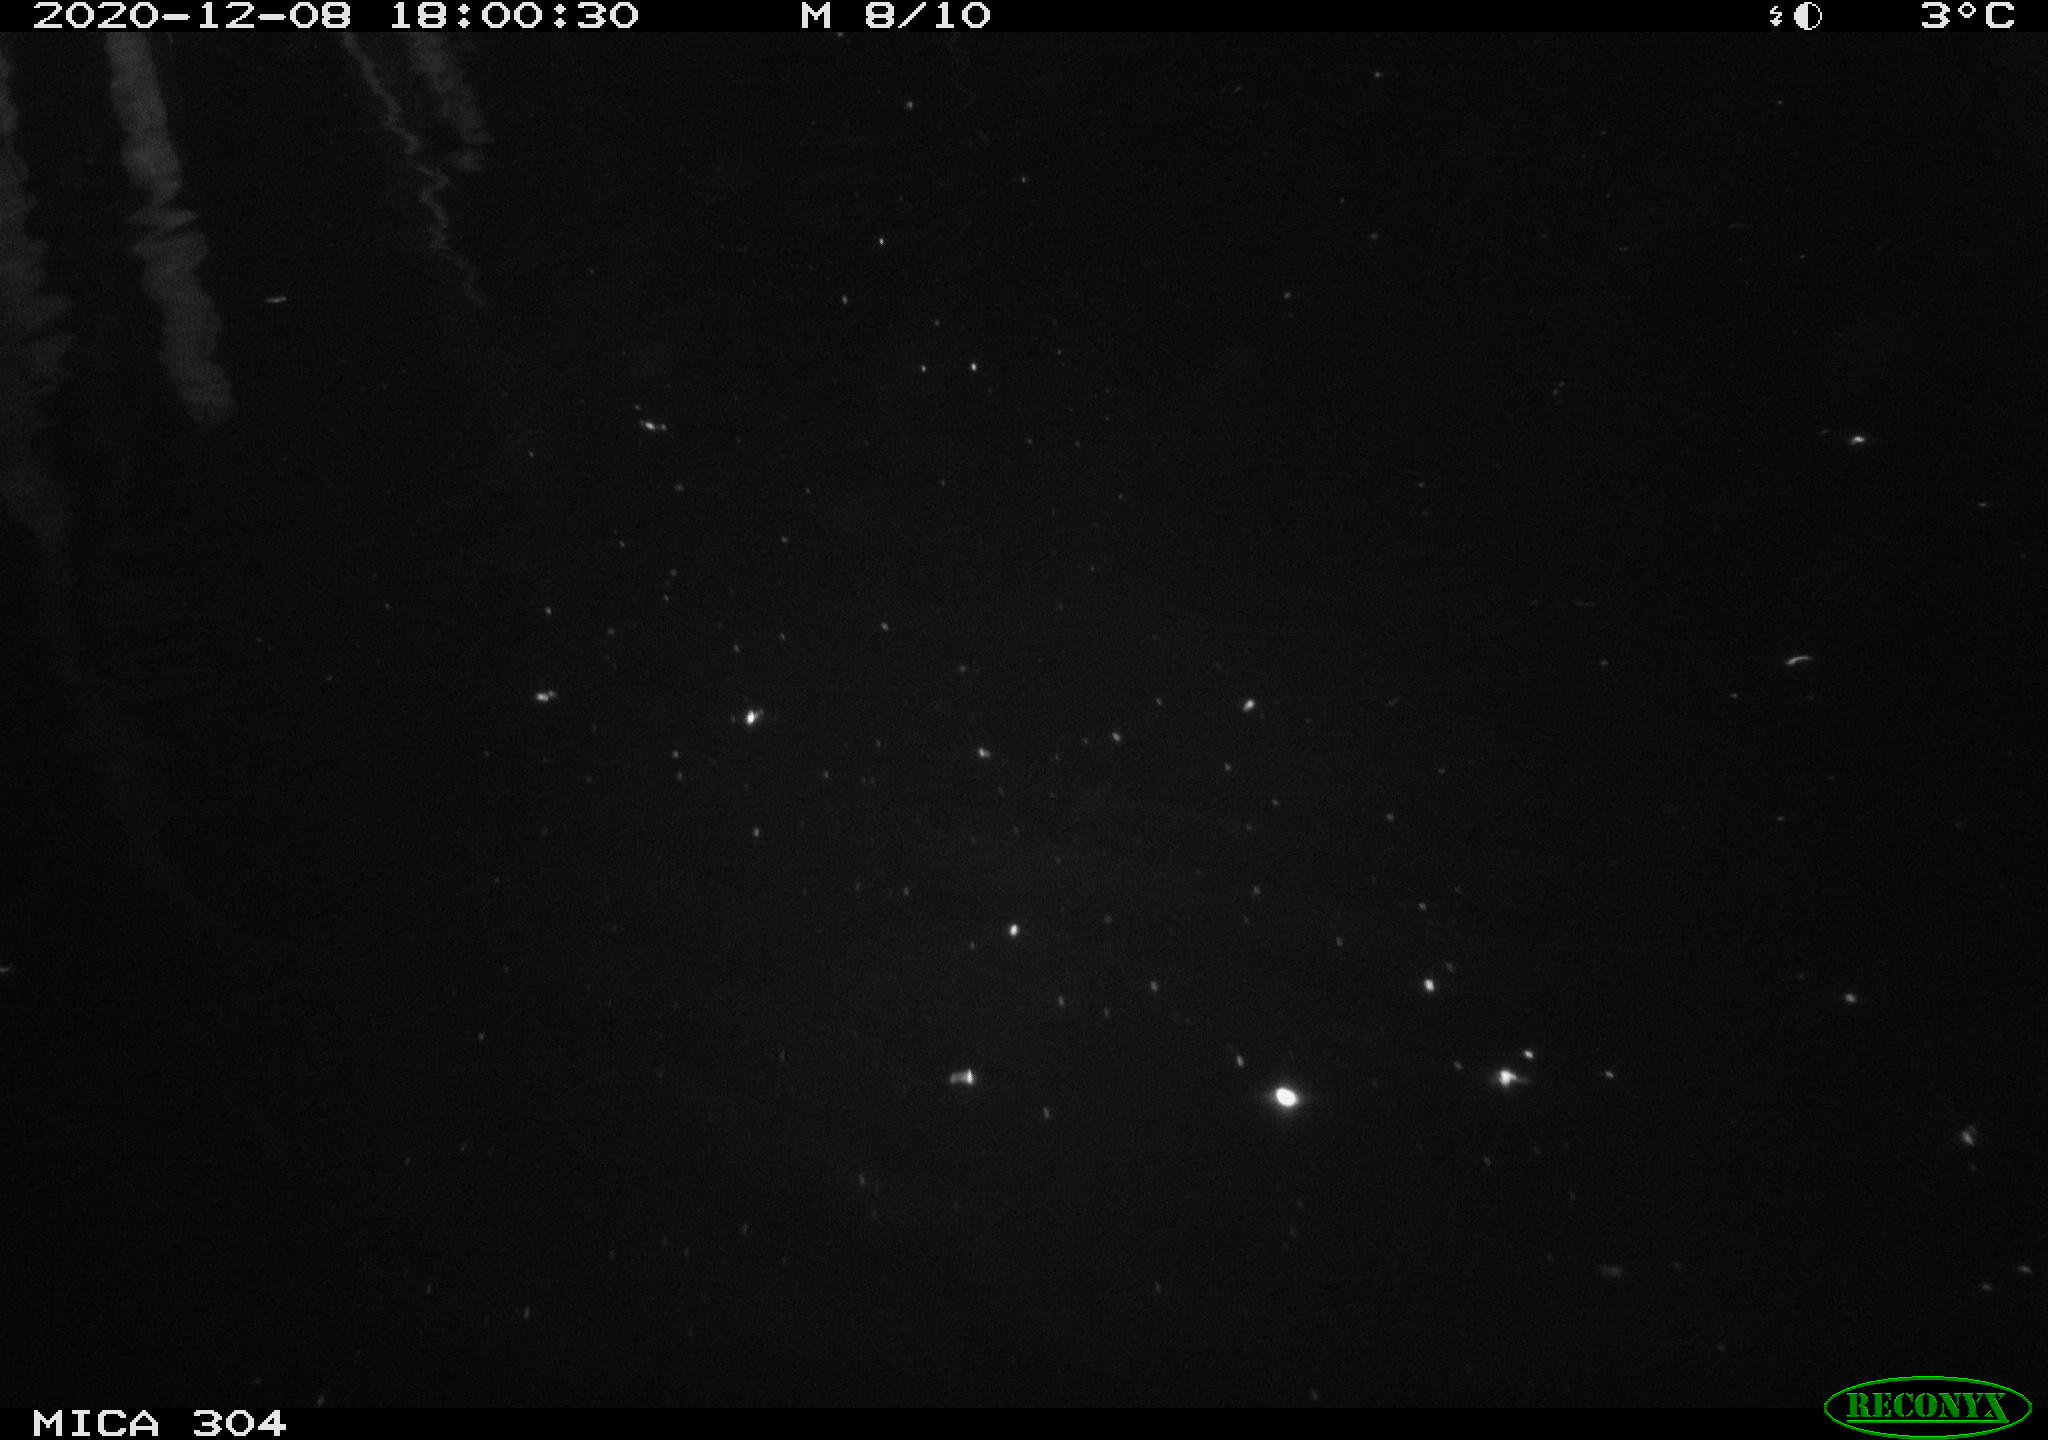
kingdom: Animalia
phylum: Chordata
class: Mammalia
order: Rodentia
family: Muridae
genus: Rattus
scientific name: Rattus norvegicus
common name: Brown rat
